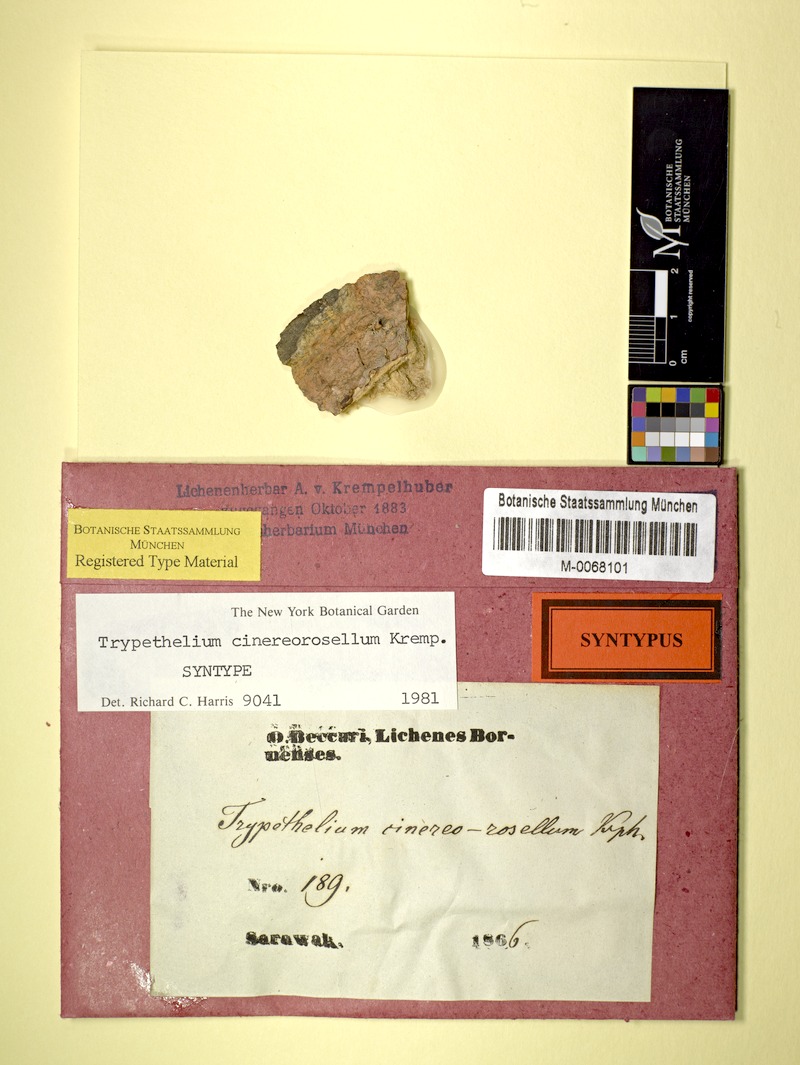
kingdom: Fungi
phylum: Ascomycota
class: Dothideomycetes
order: Trypetheliales
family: Trypetheliaceae
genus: Astrothelium
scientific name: Astrothelium cinereorosellum
